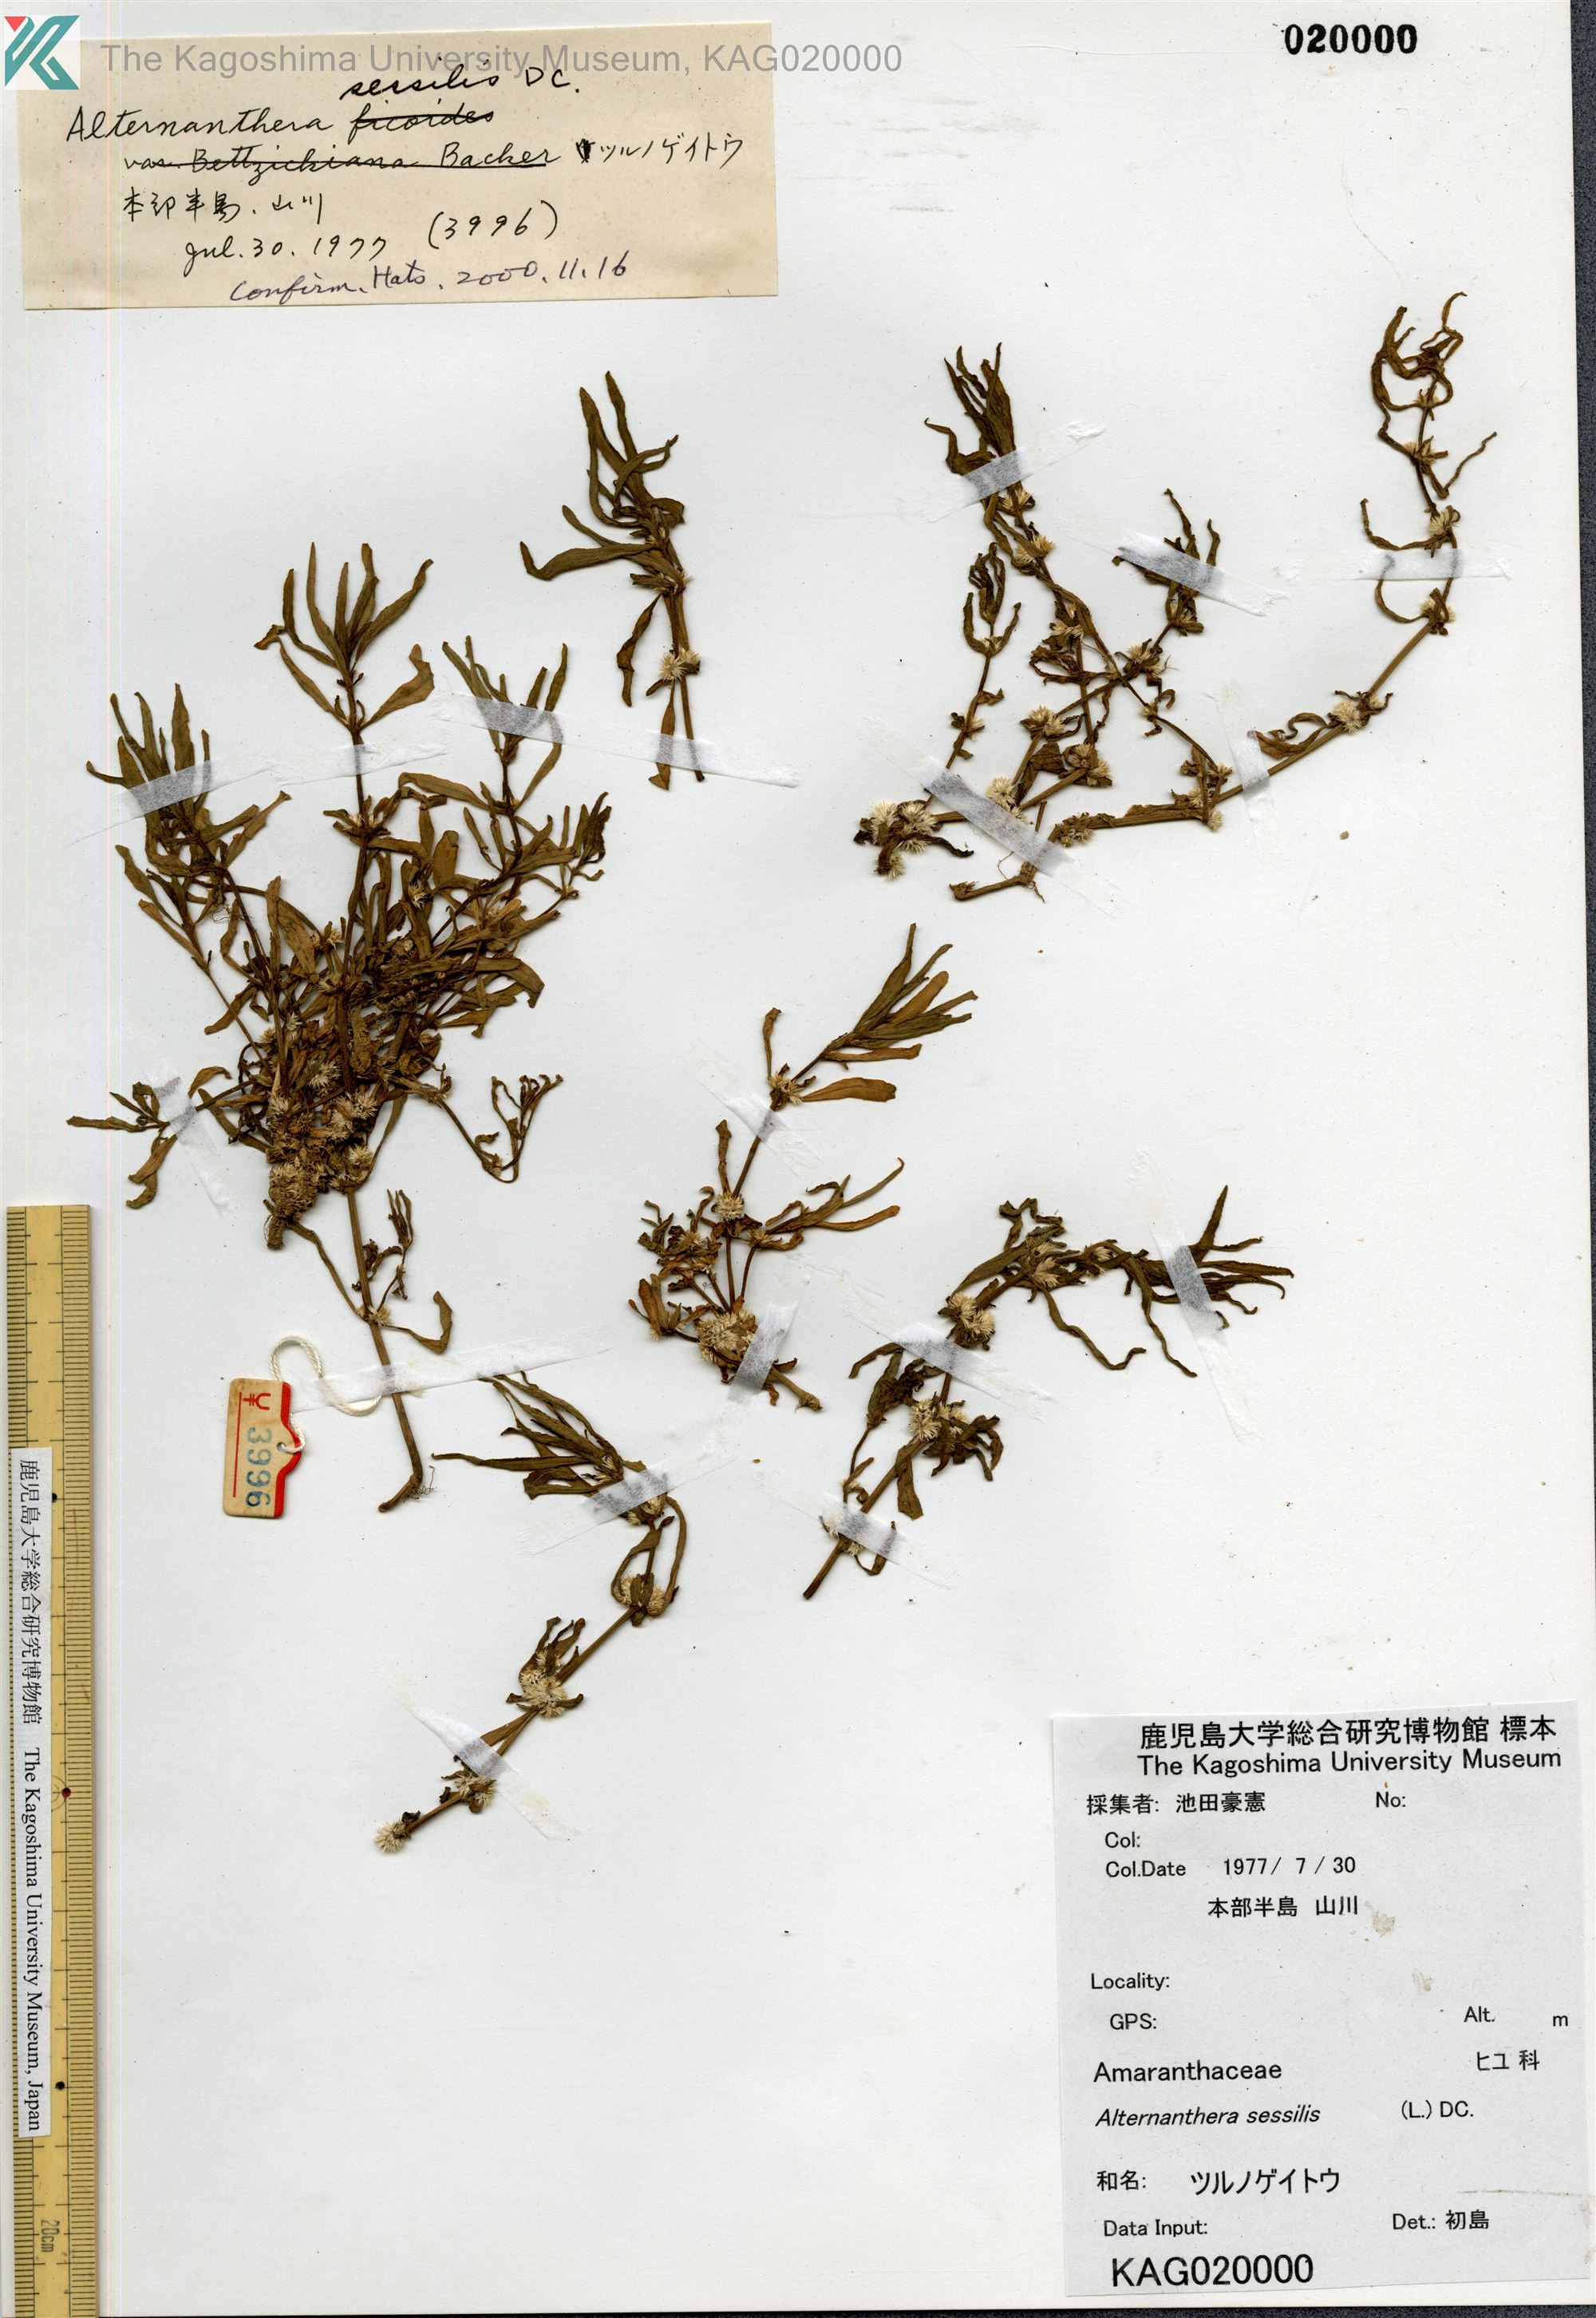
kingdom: Plantae
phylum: Tracheophyta
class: Magnoliopsida
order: Caryophyllales
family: Amaranthaceae
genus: Alternanthera
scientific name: Alternanthera sessilis
